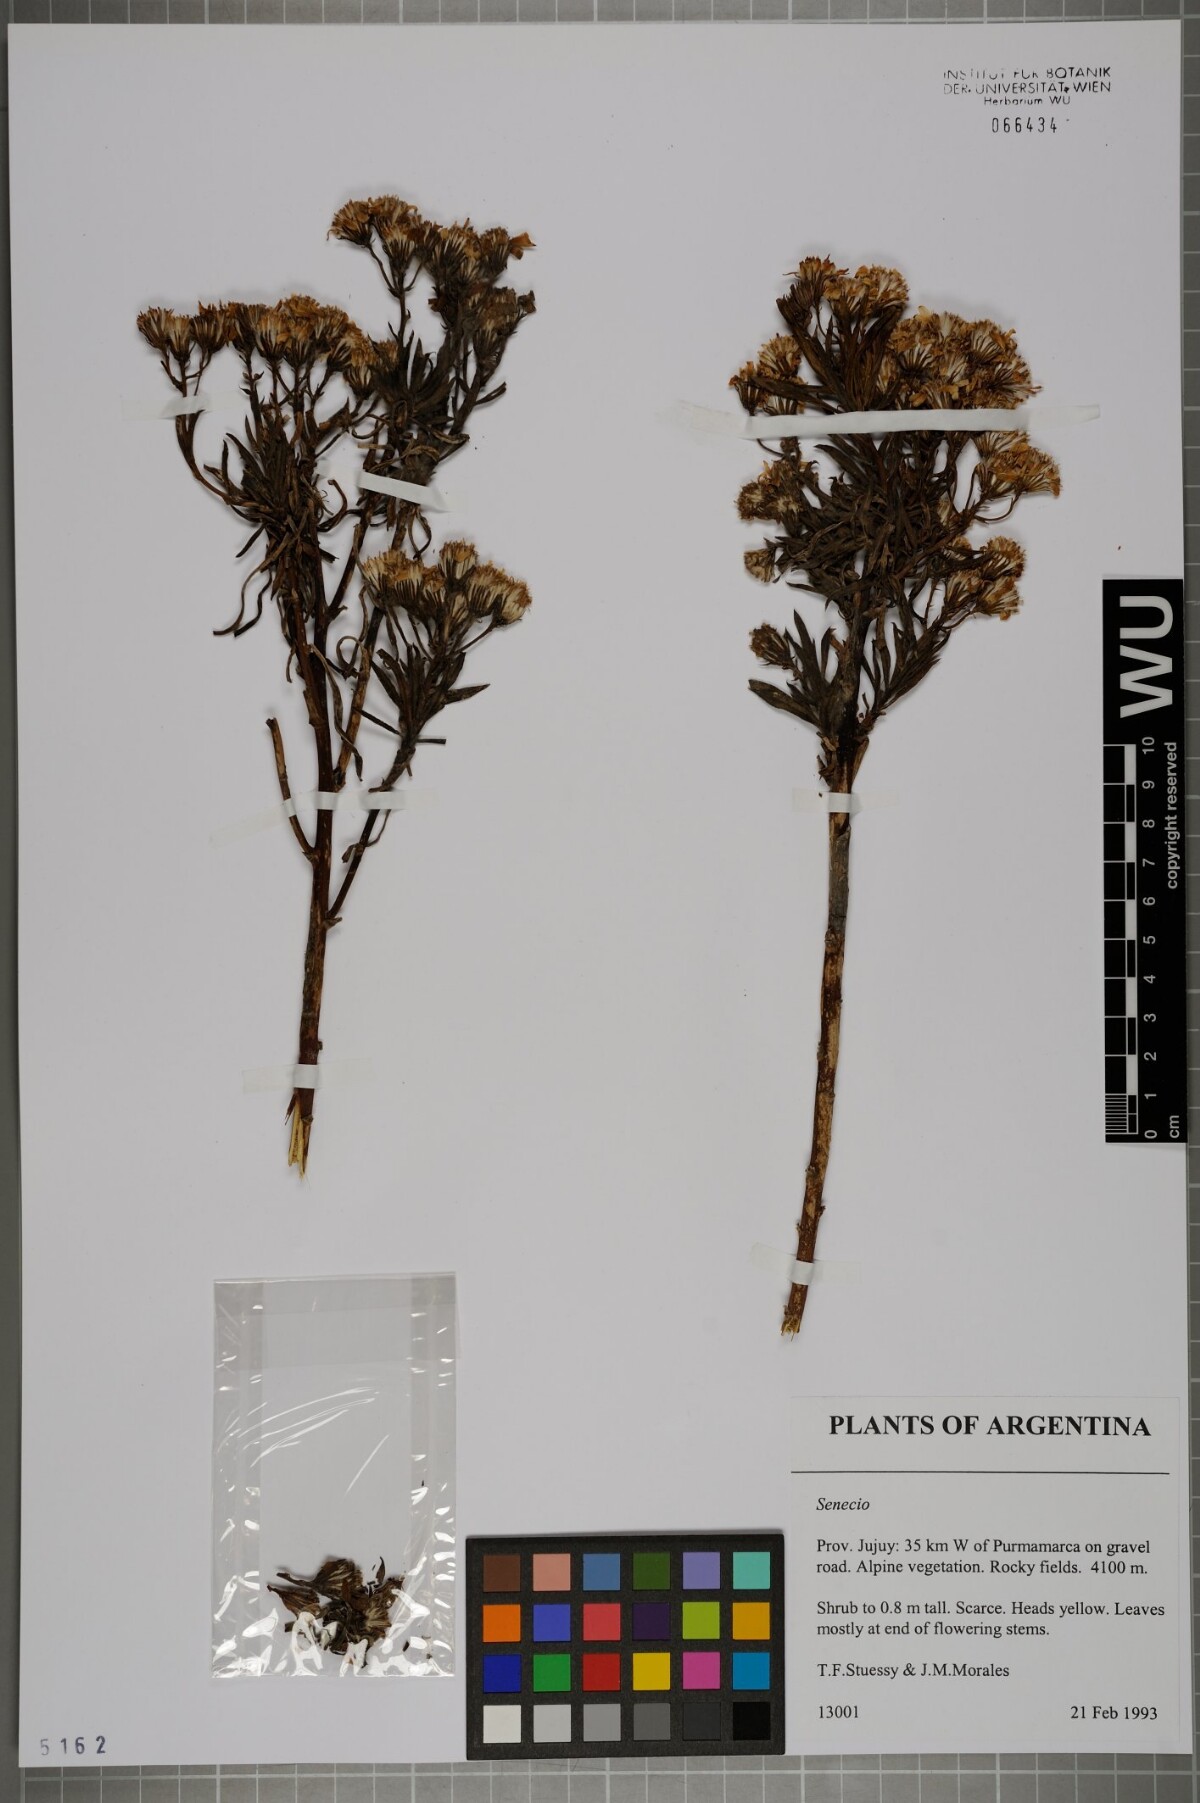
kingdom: Plantae
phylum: Tracheophyta
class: Magnoliopsida
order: Asterales
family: Asteraceae
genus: Senecio
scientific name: Senecio
